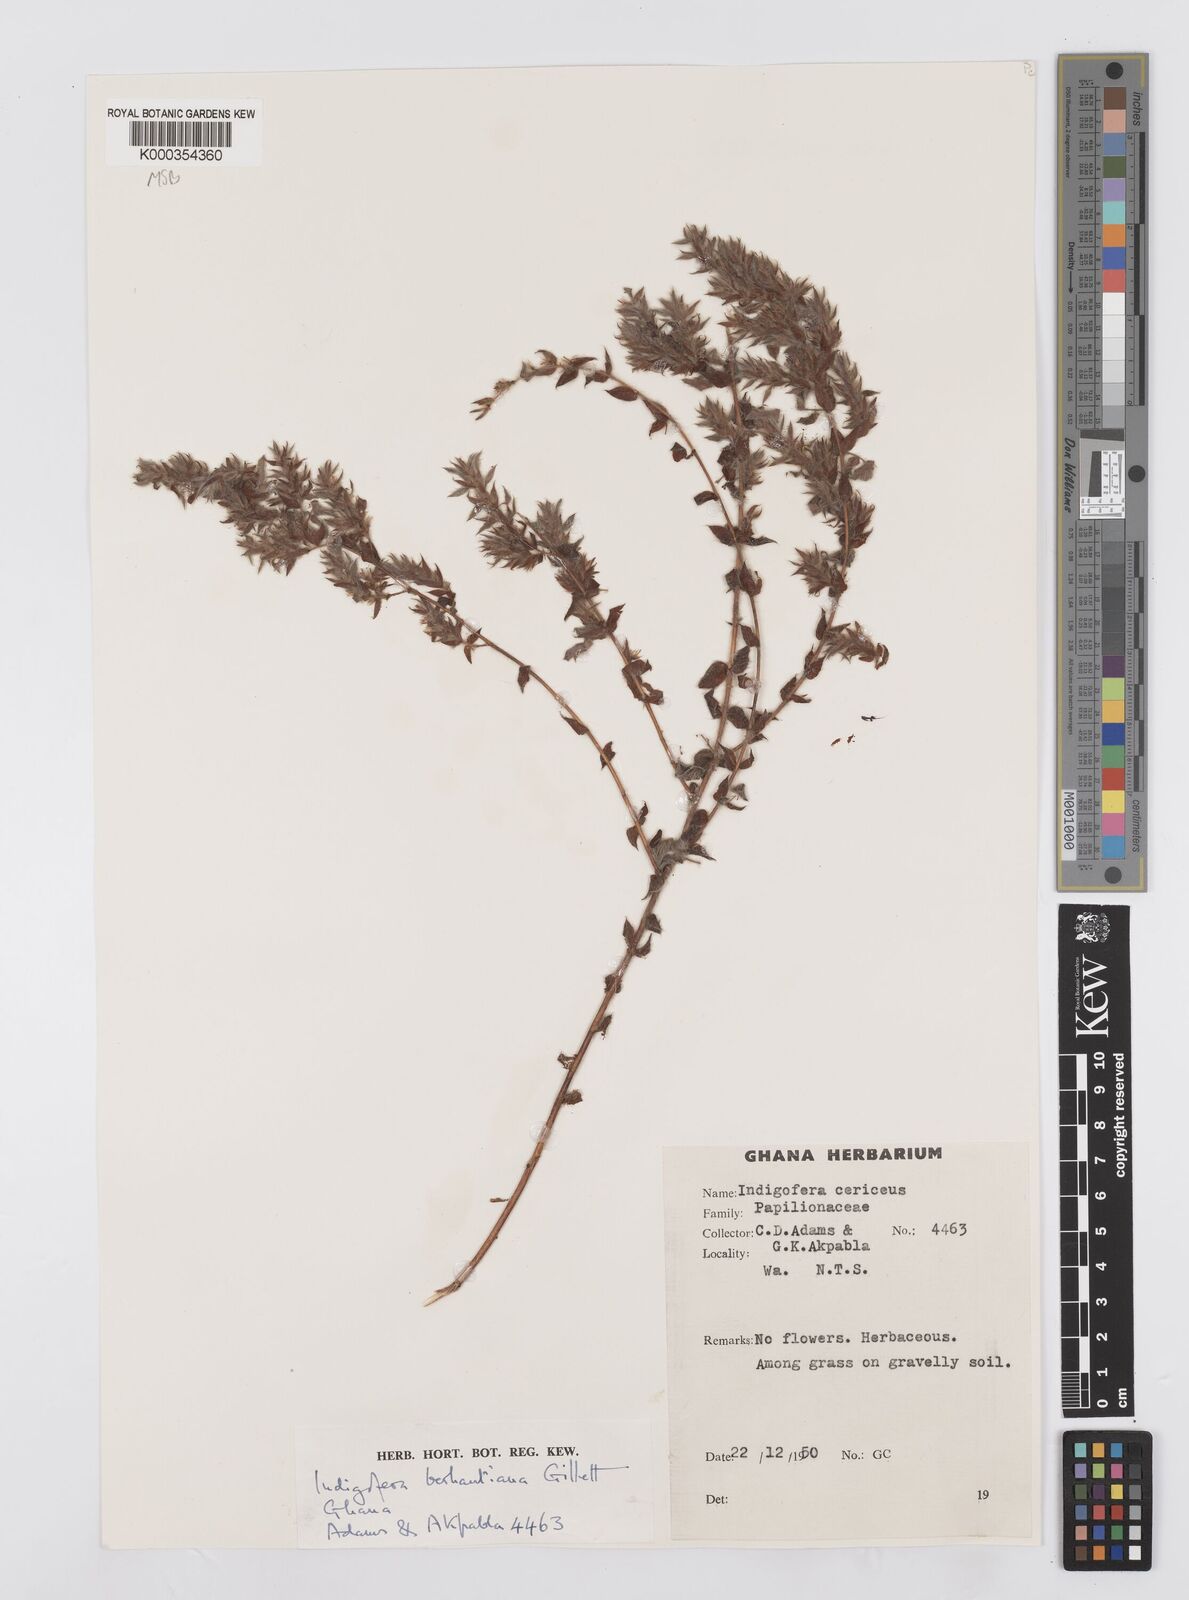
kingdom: Plantae
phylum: Tracheophyta
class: Magnoliopsida
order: Fabales
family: Fabaceae
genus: Indigofera
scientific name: Indigofera berhautiana
